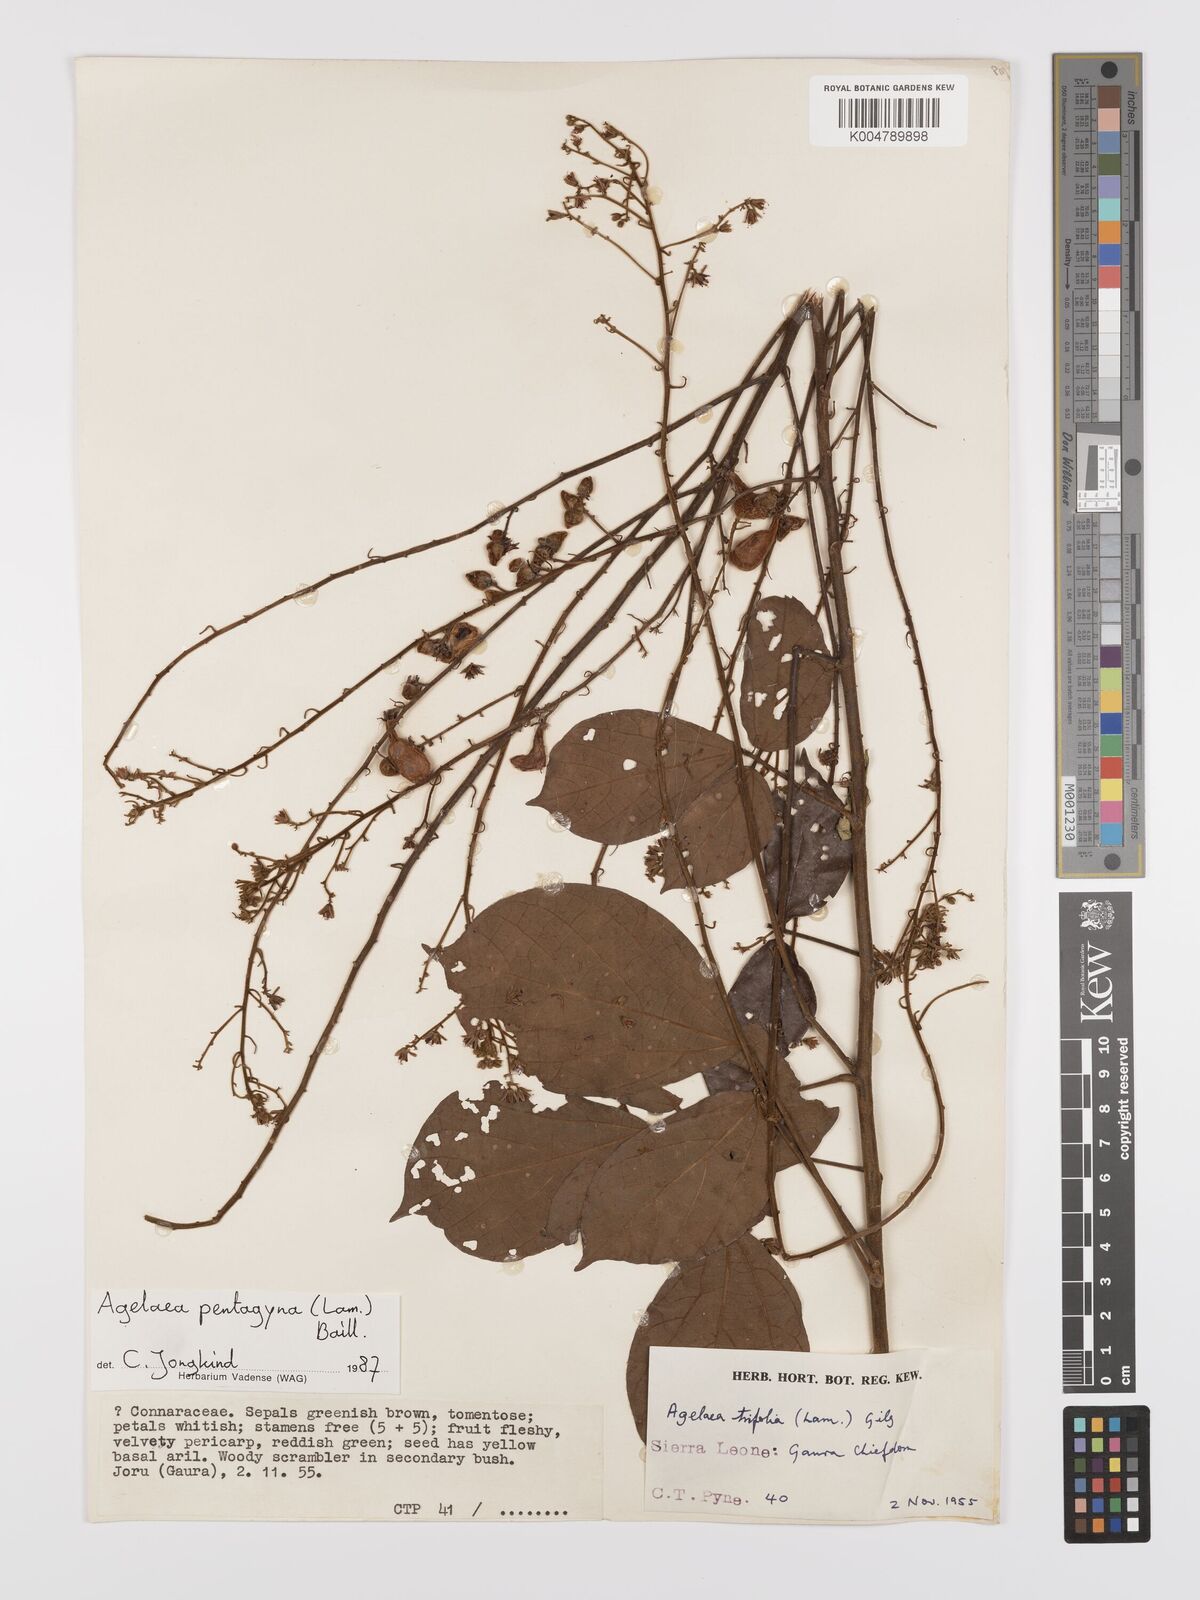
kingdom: Plantae
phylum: Tracheophyta
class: Magnoliopsida
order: Oxalidales
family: Connaraceae
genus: Agelaea
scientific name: Agelaea pentagyna
